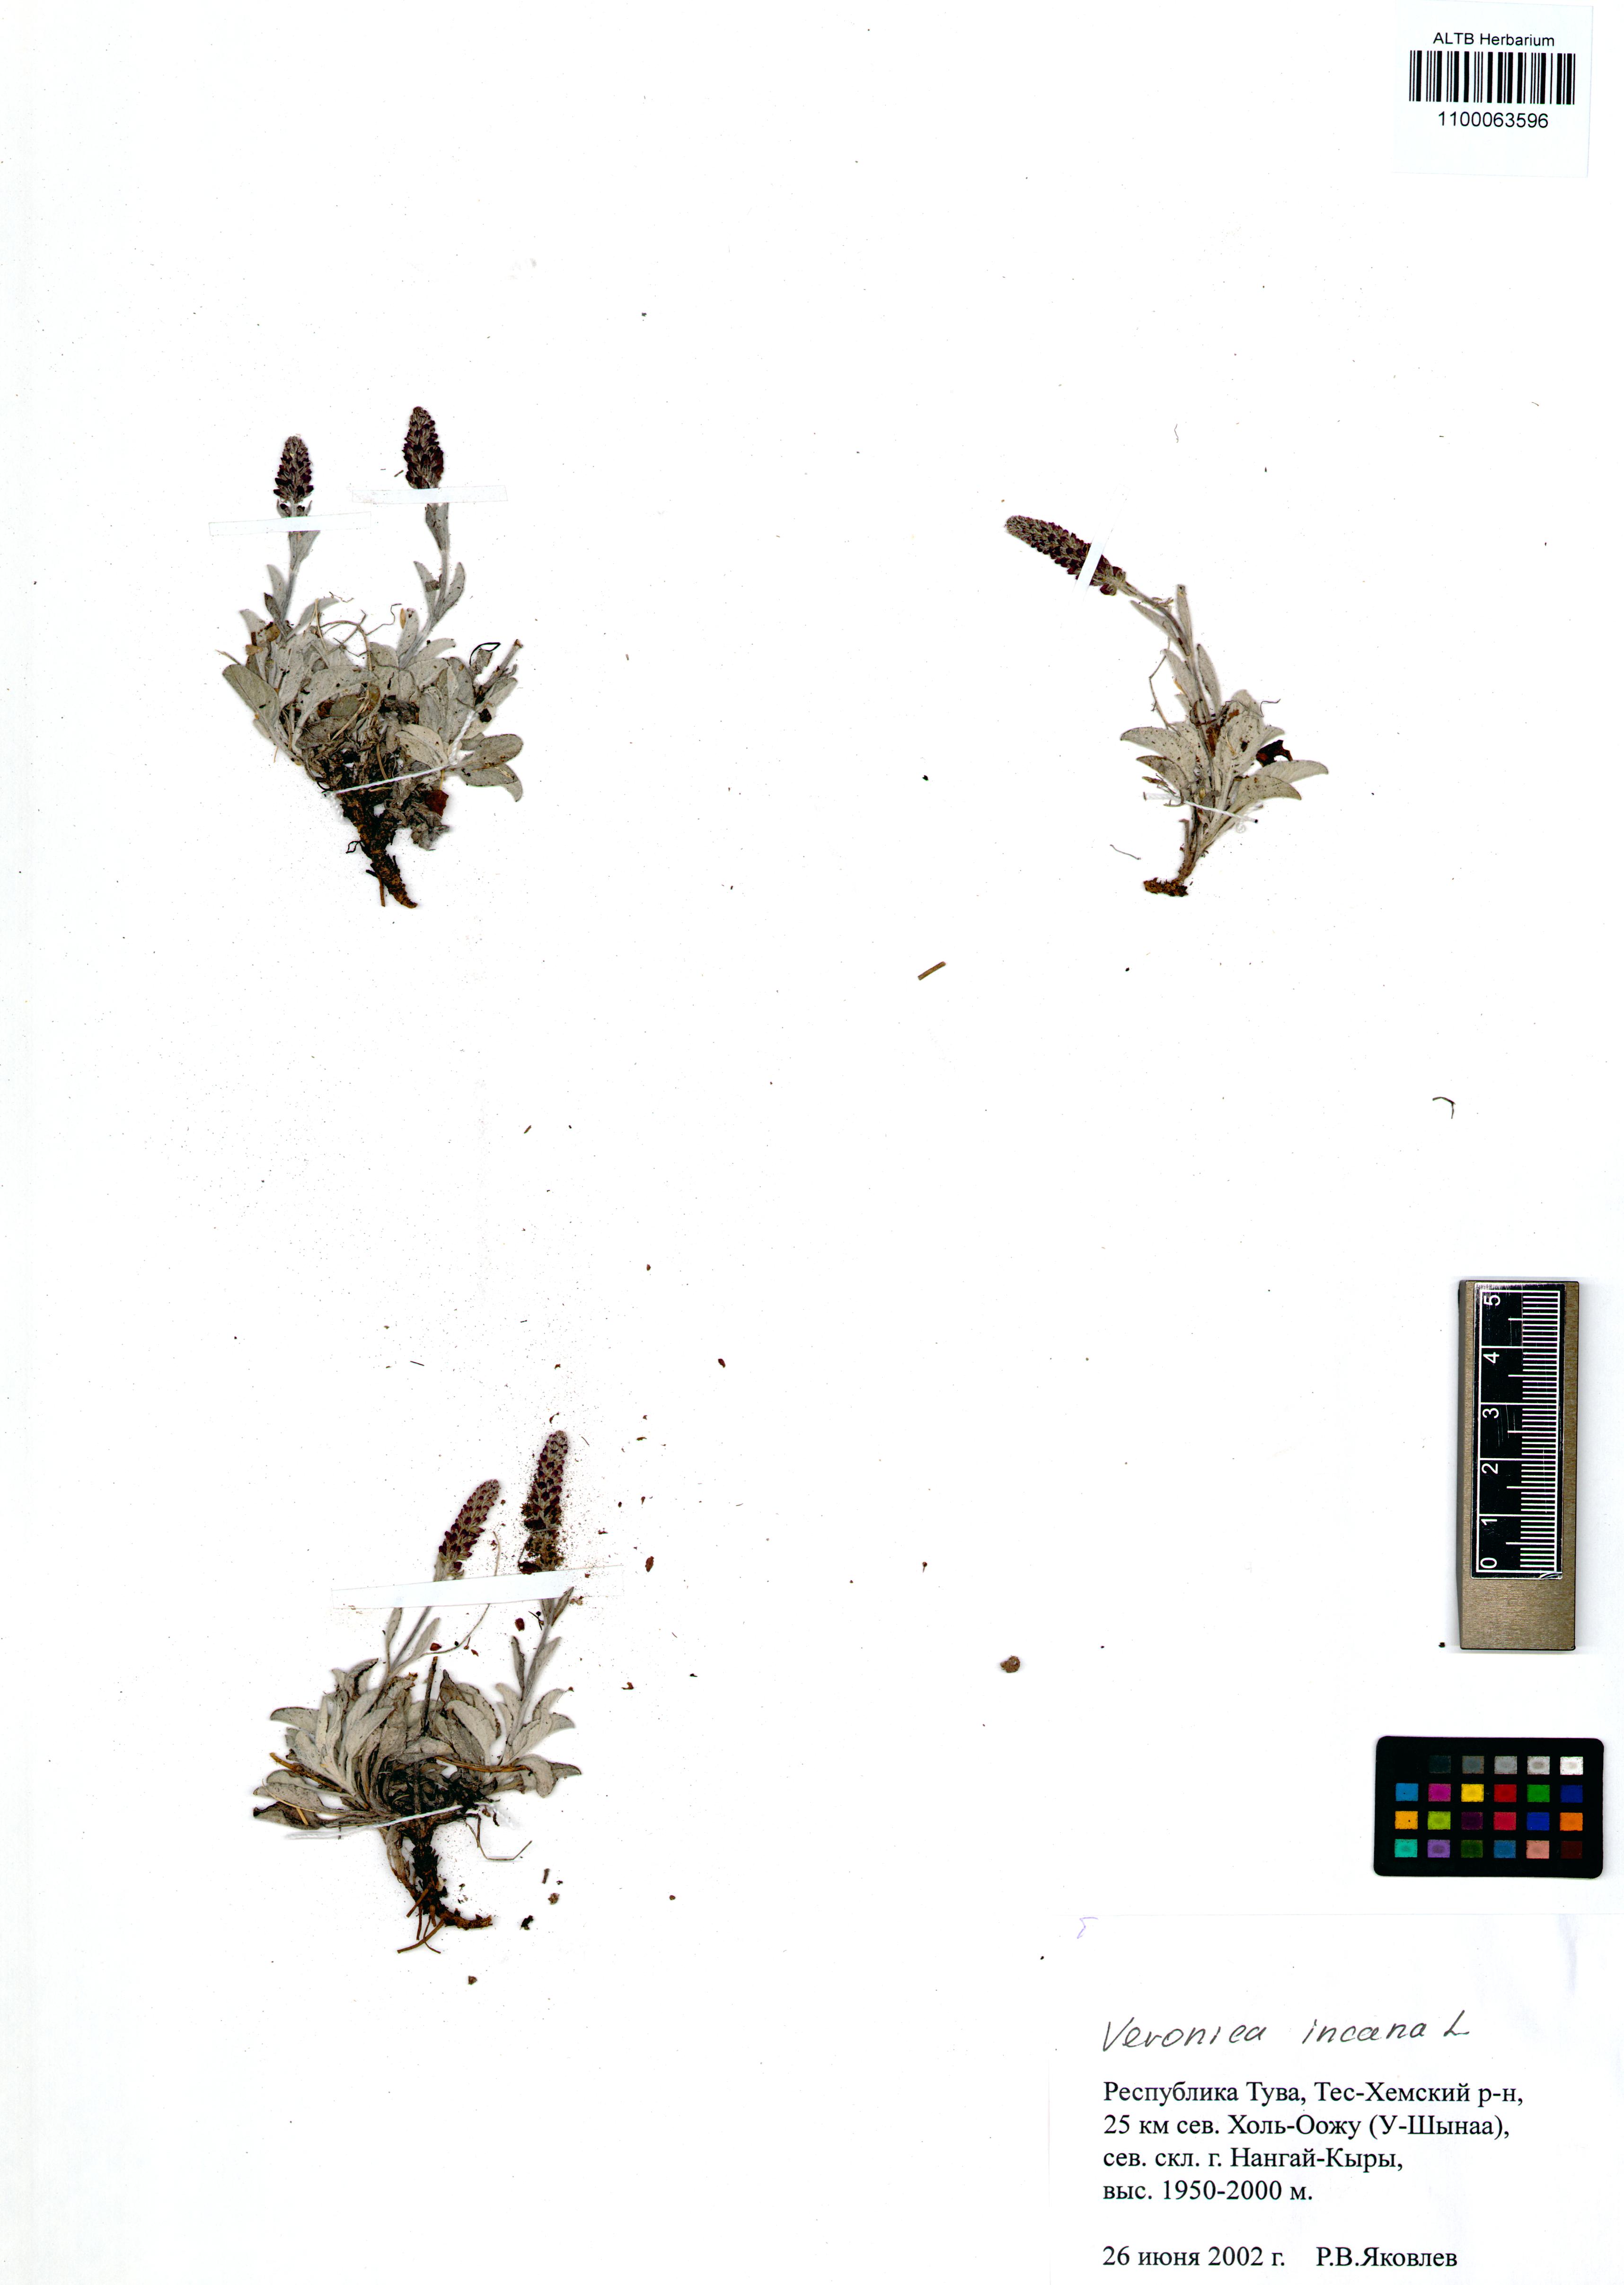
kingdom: Plantae
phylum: Tracheophyta
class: Magnoliopsida
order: Lamiales
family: Plantaginaceae
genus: Veronica
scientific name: Veronica incana
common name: Silver speedwell
